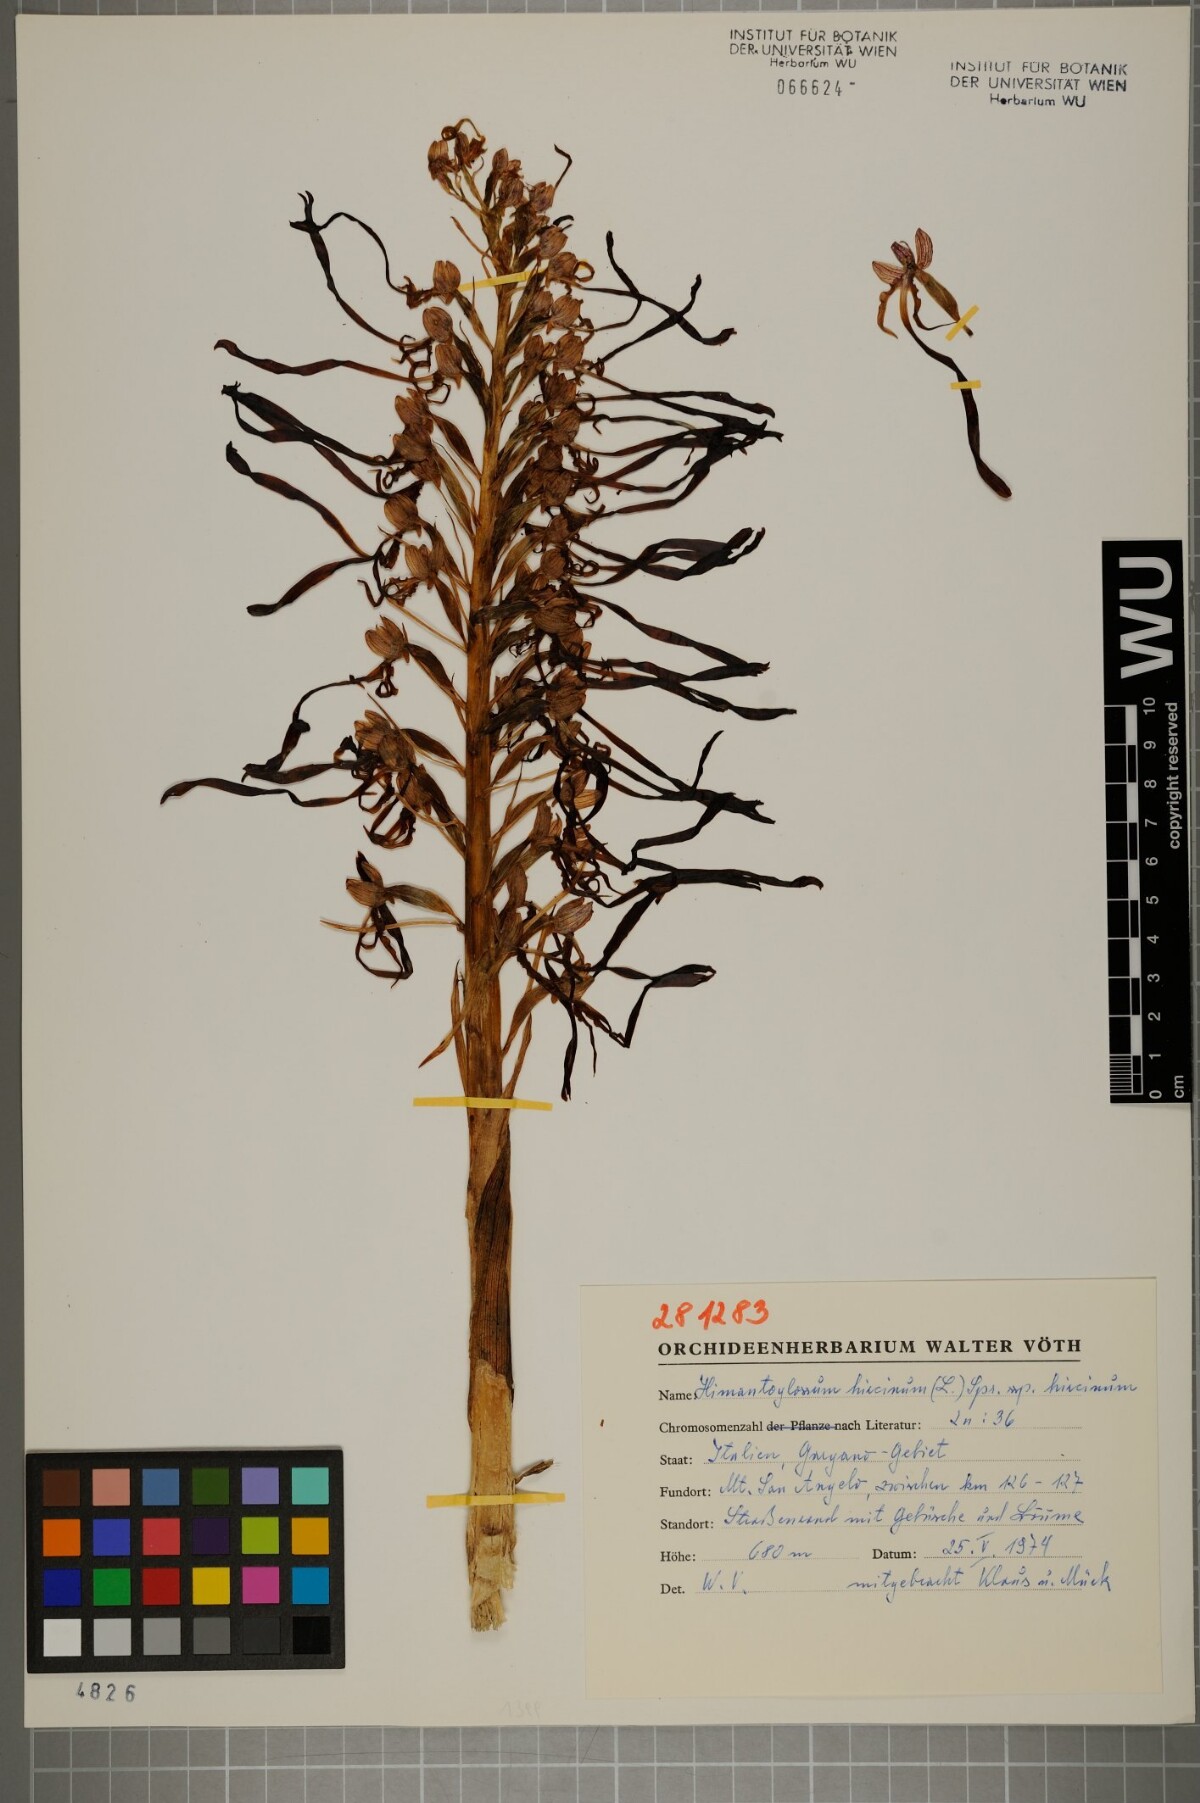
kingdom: Plantae
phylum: Tracheophyta
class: Liliopsida
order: Asparagales
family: Orchidaceae
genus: Himantoglossum
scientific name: Himantoglossum hircinum
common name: Lizard orchid
